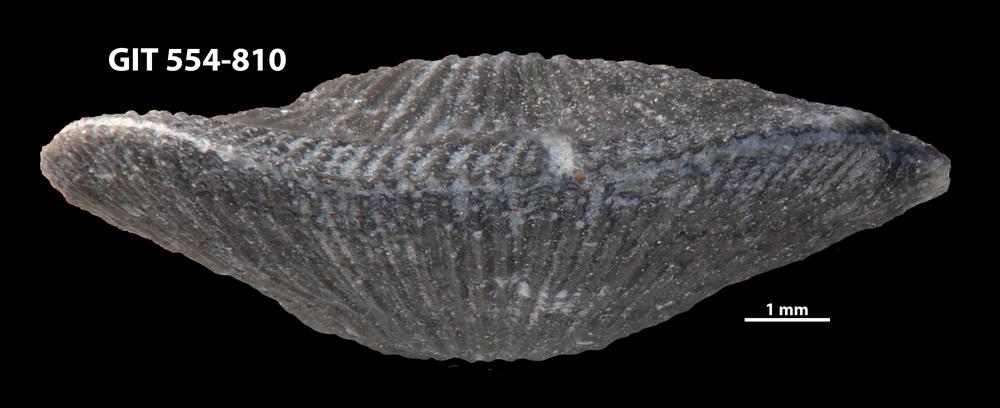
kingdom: Animalia
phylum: Brachiopoda
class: Rhynchonellata
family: Rhipidomellidae
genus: Mendacella
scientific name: Mendacella Orthis hybrida
